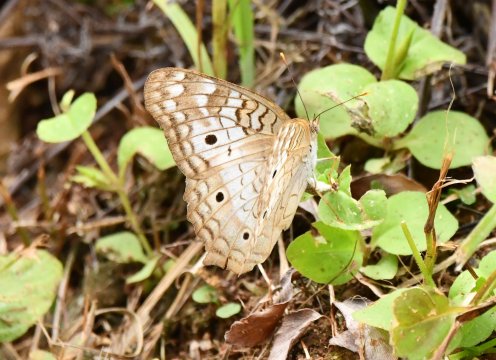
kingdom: Animalia
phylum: Arthropoda
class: Insecta
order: Lepidoptera
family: Nymphalidae
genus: Anartia
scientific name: Anartia jatrophae
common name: White Peacock
